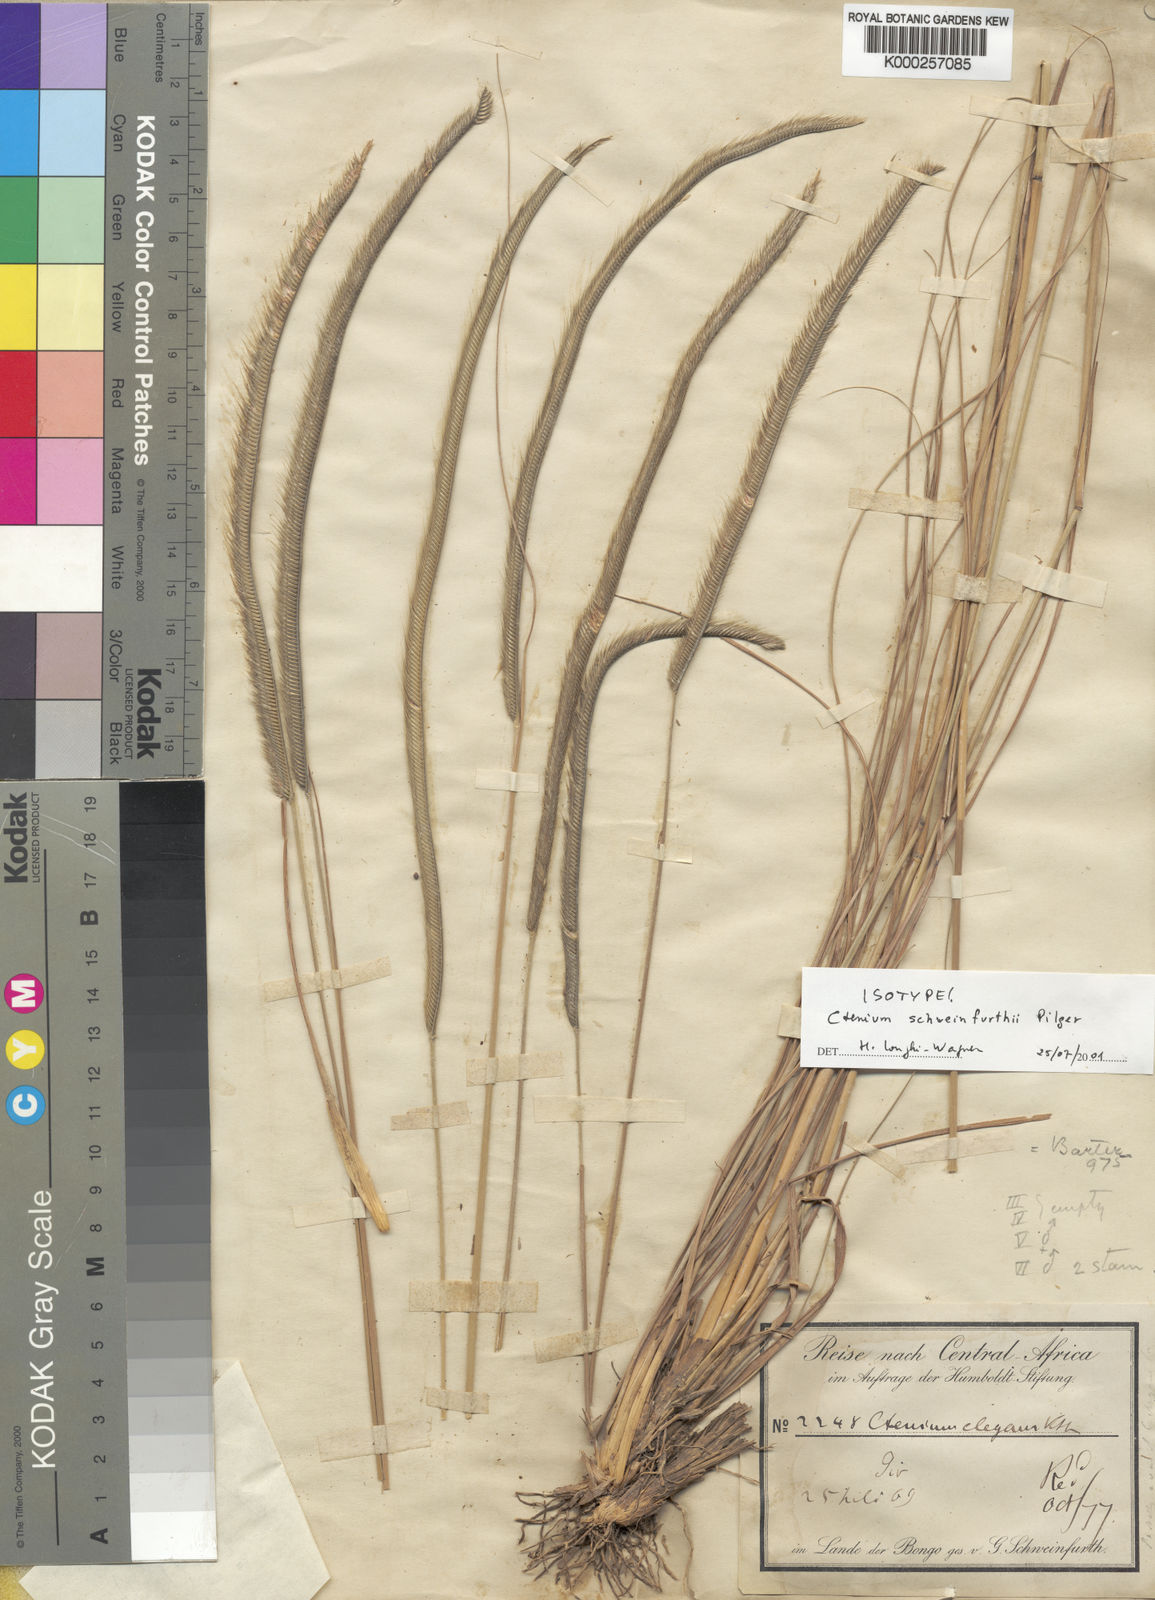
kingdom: Plantae
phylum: Tracheophyta
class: Liliopsida
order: Poales
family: Poaceae
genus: Ctenium
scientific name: Ctenium newtonii
